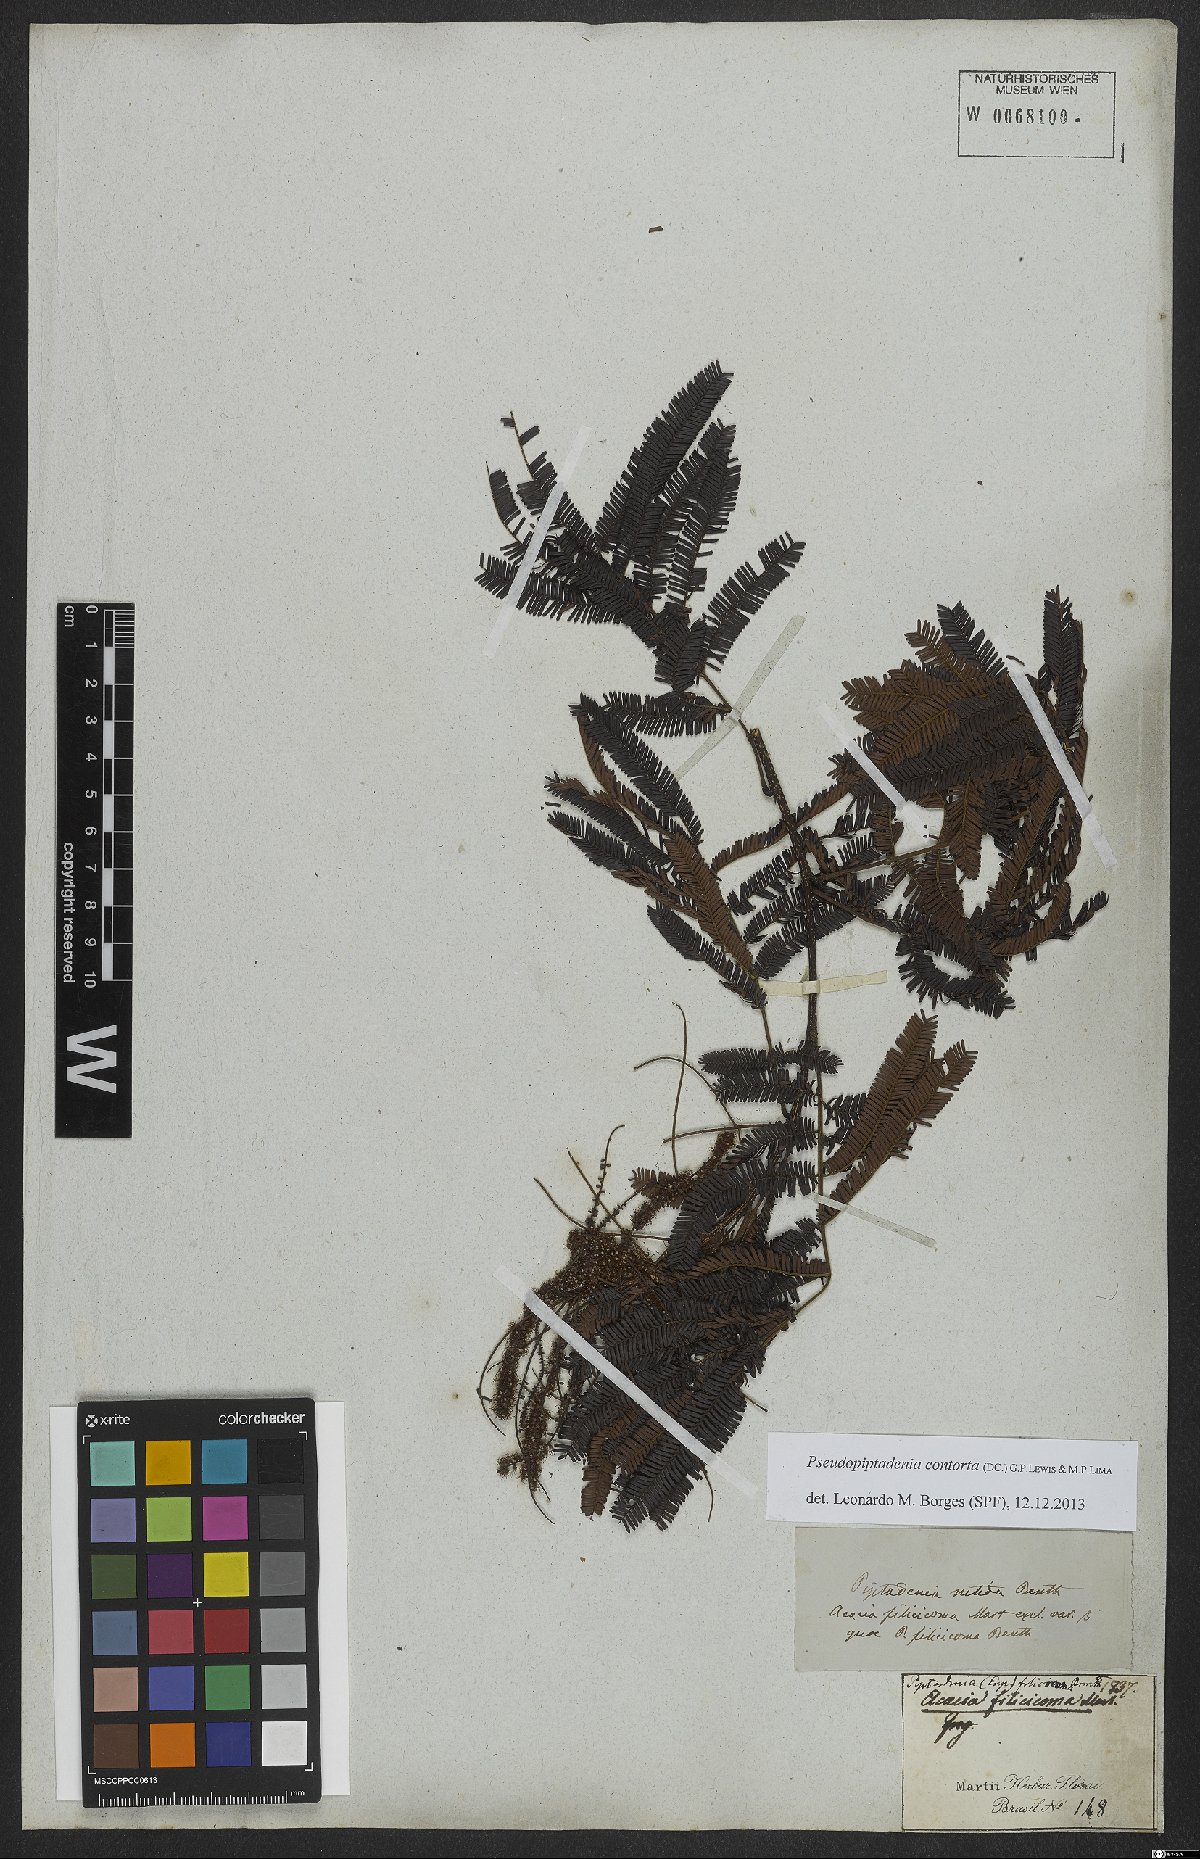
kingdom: Plantae
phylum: Tracheophyta
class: Magnoliopsida
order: Fabales
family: Fabaceae
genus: Pseudopiptadenia
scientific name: Pseudopiptadenia contorta
